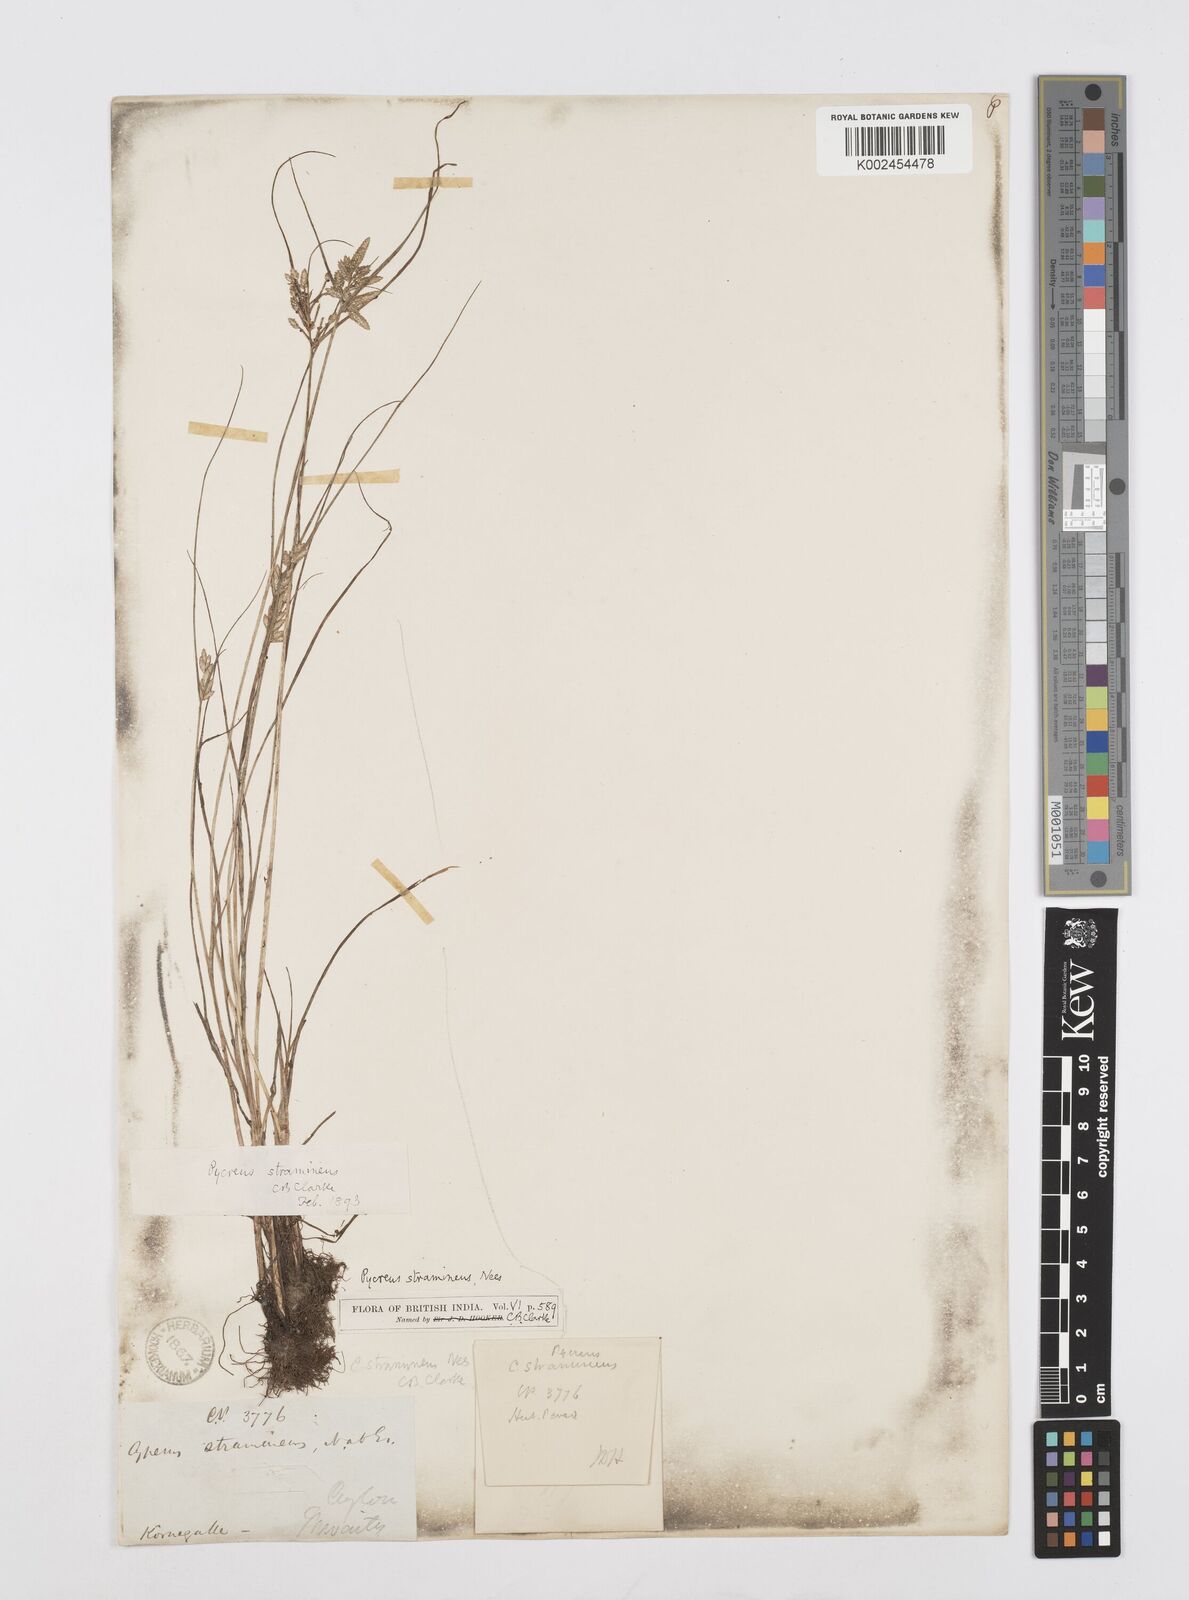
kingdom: Plantae
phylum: Tracheophyta
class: Liliopsida
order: Poales
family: Cyperaceae
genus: Cyperus
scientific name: Cyperus substramineus
